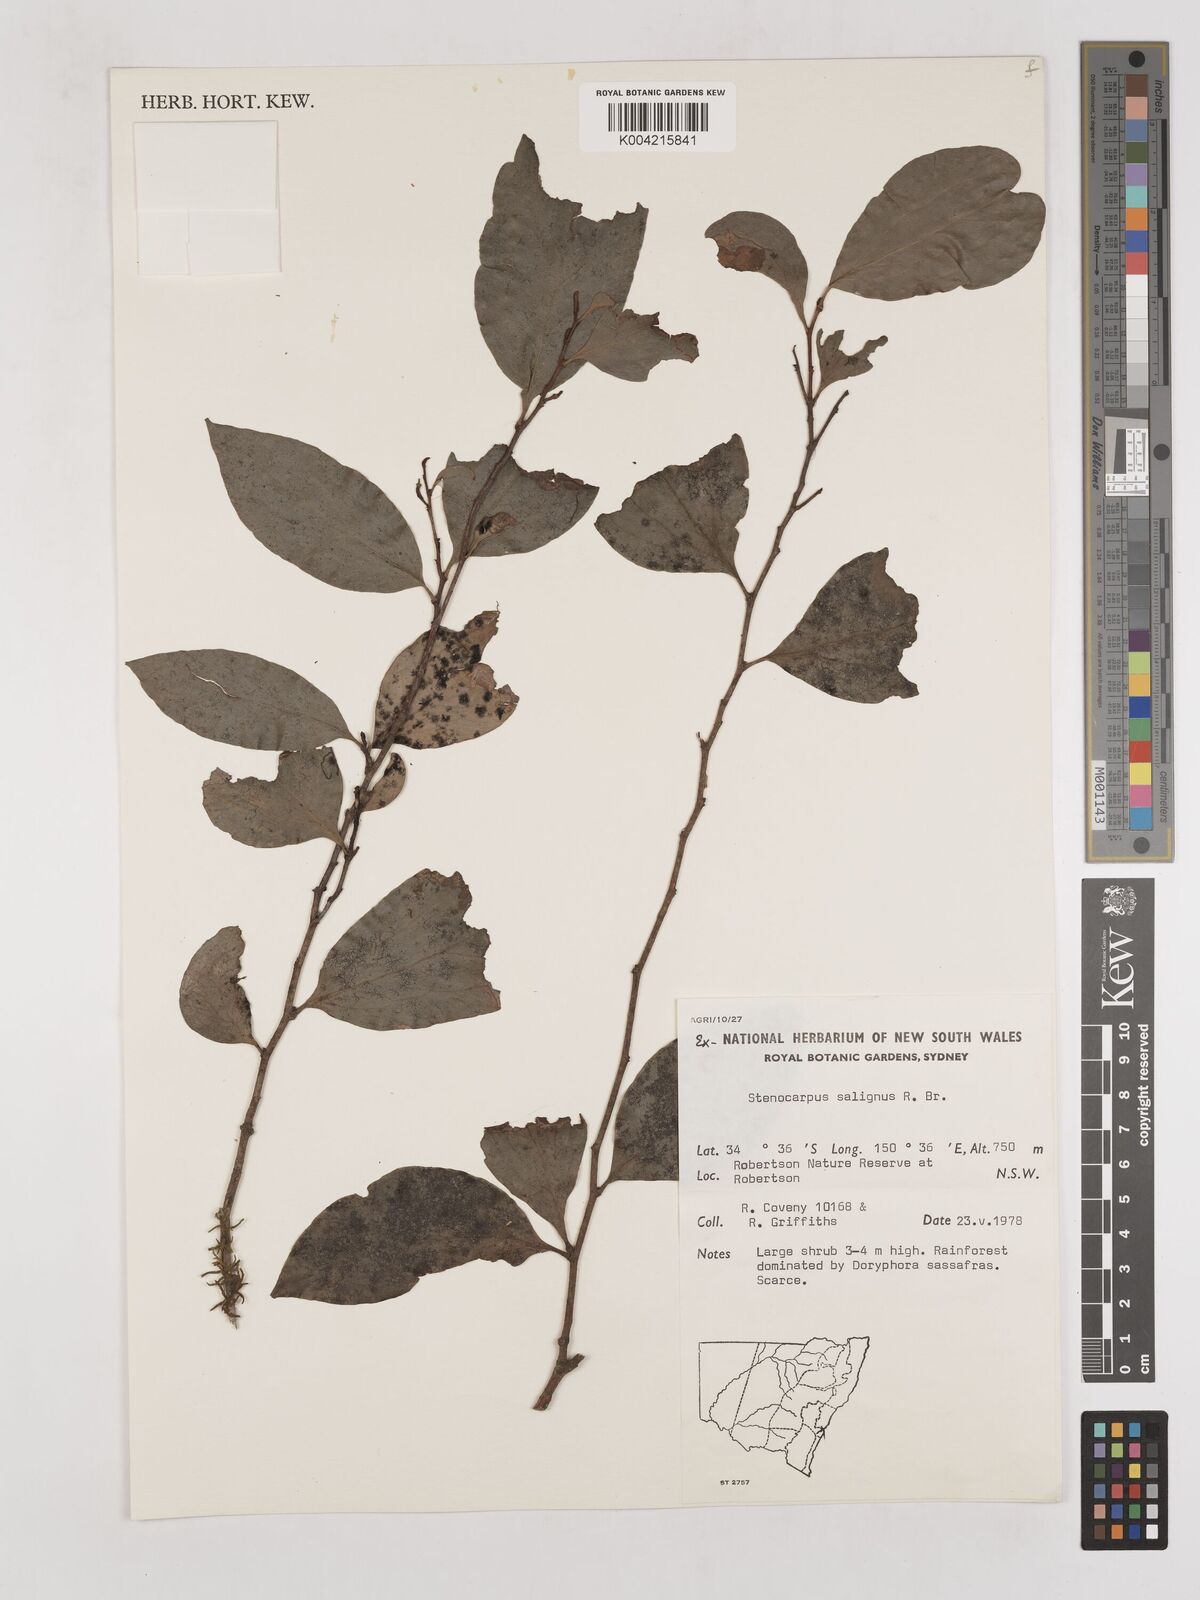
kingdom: Plantae
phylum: Tracheophyta
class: Magnoliopsida
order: Proteales
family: Proteaceae
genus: Stenocarpus
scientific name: Stenocarpus salignus
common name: Red silky-oak
